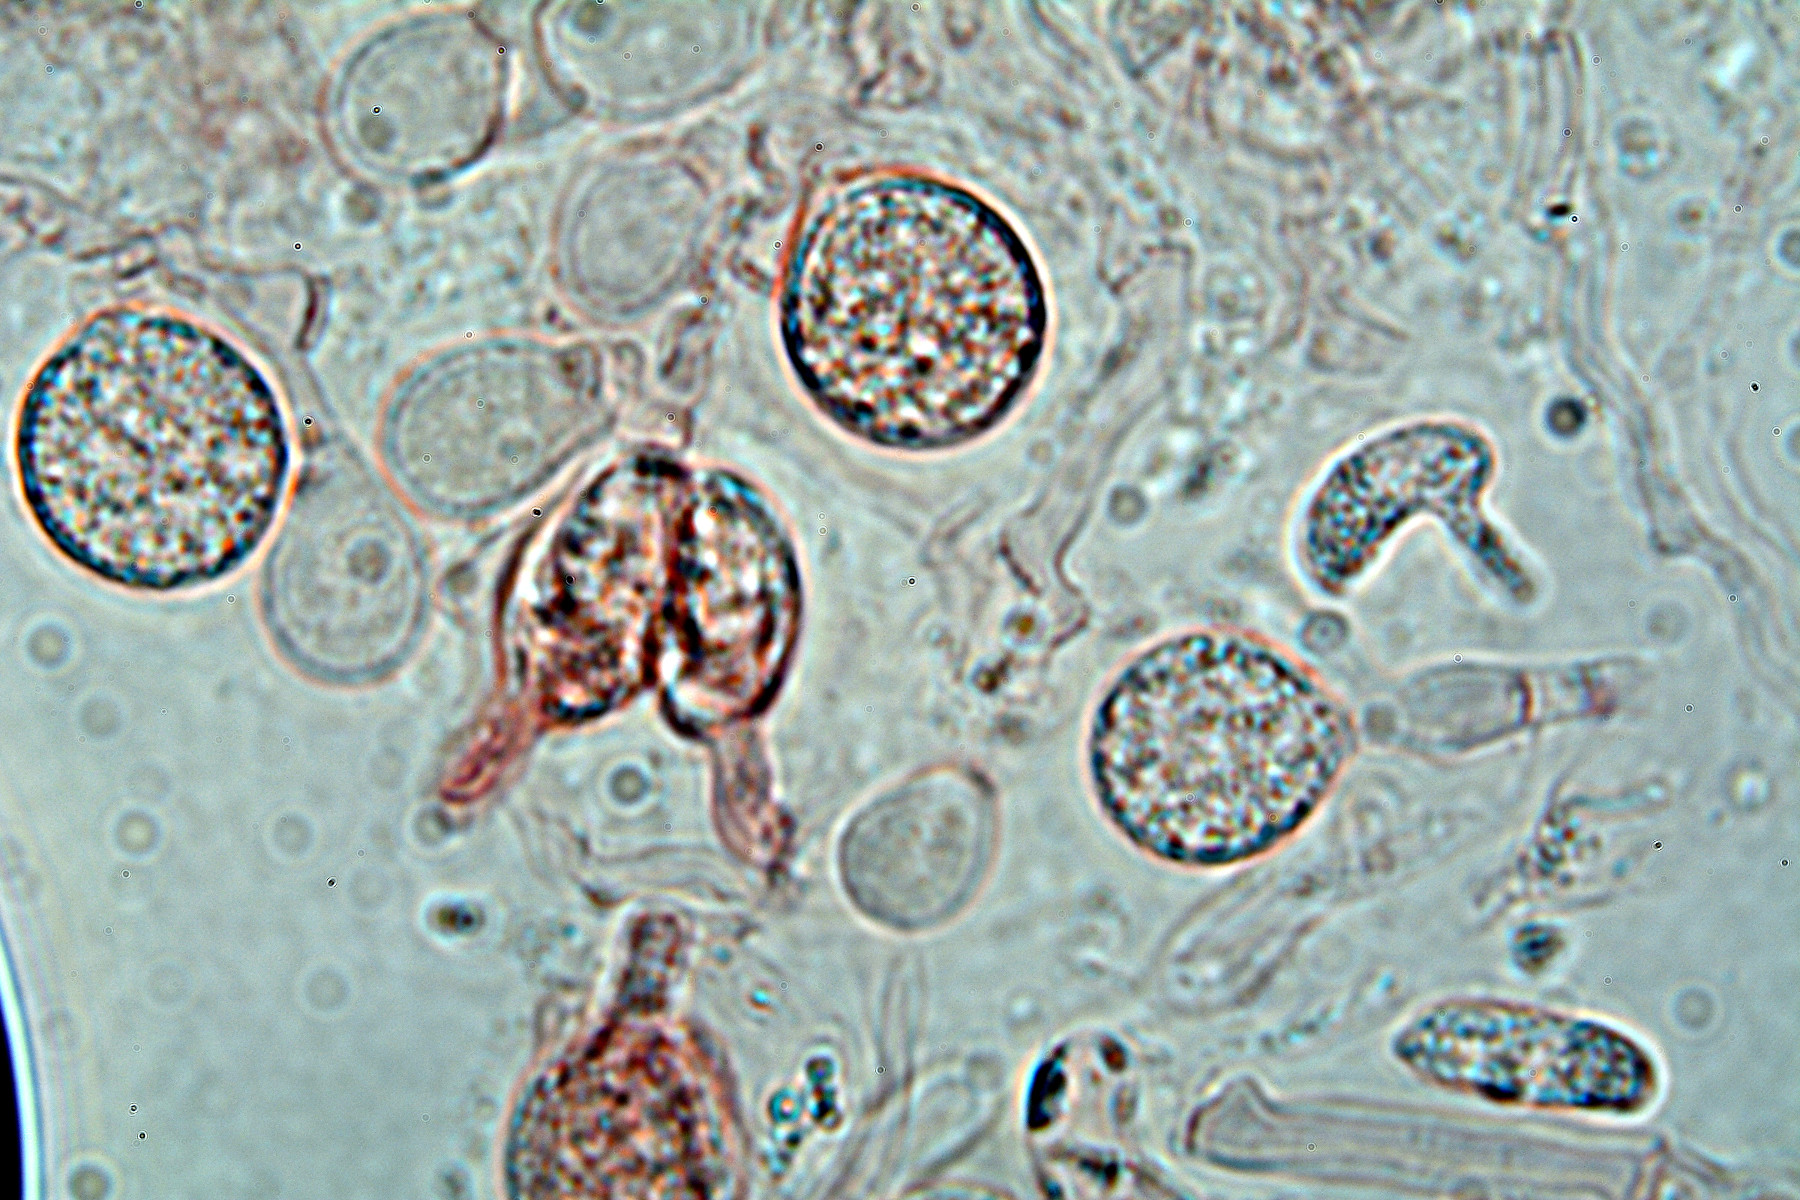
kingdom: Fungi
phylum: Basidiomycota
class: Agaricomycetes
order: Sebacinales
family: Sebacinaceae
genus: Sebacina
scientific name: Sebacina grisea
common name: blågrå bævrehinde
